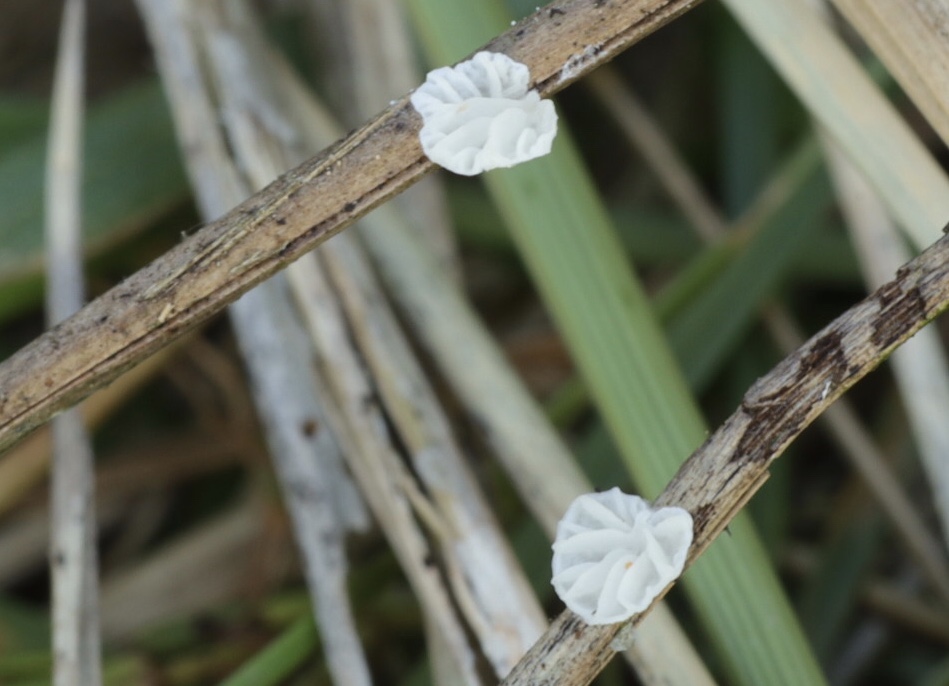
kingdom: Fungi
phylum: Basidiomycota
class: Agaricomycetes
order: Agaricales
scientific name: Agaricales
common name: champignonordenen
